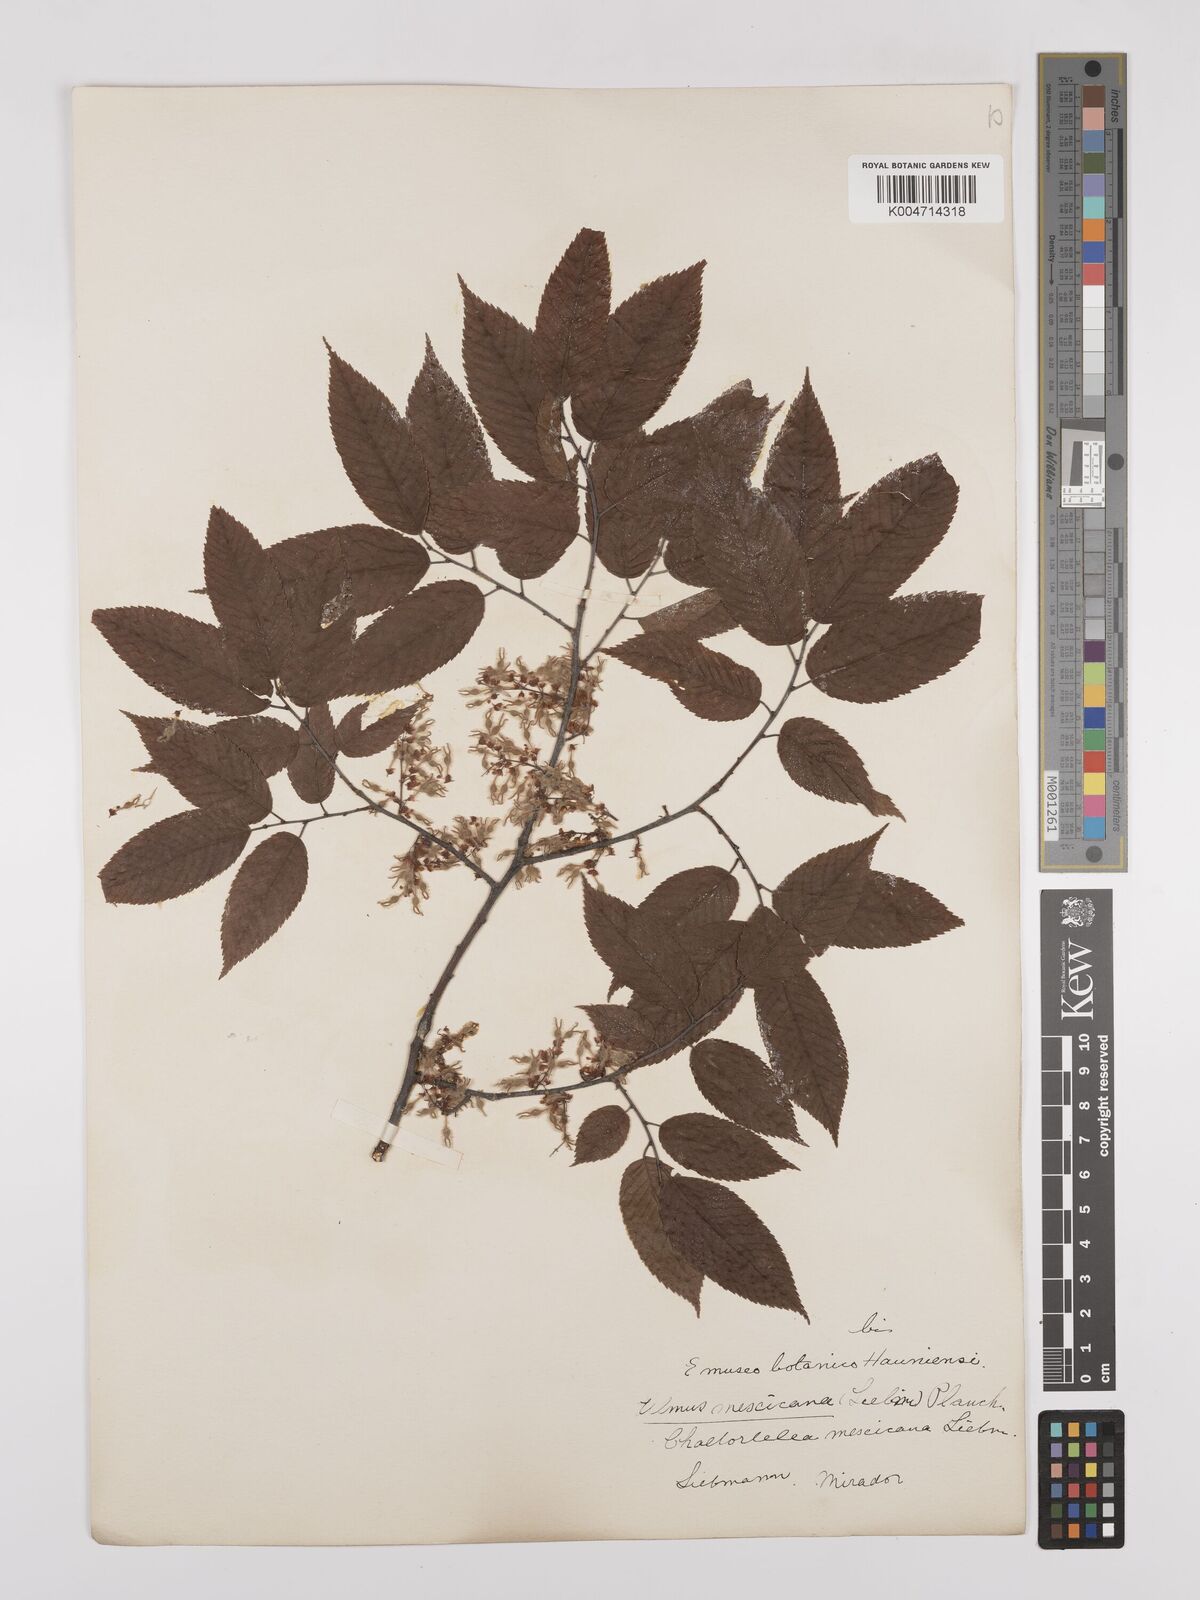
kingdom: Plantae
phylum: Tracheophyta
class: Magnoliopsida
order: Rosales
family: Ulmaceae
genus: Ulmus
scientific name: Ulmus mexicana
